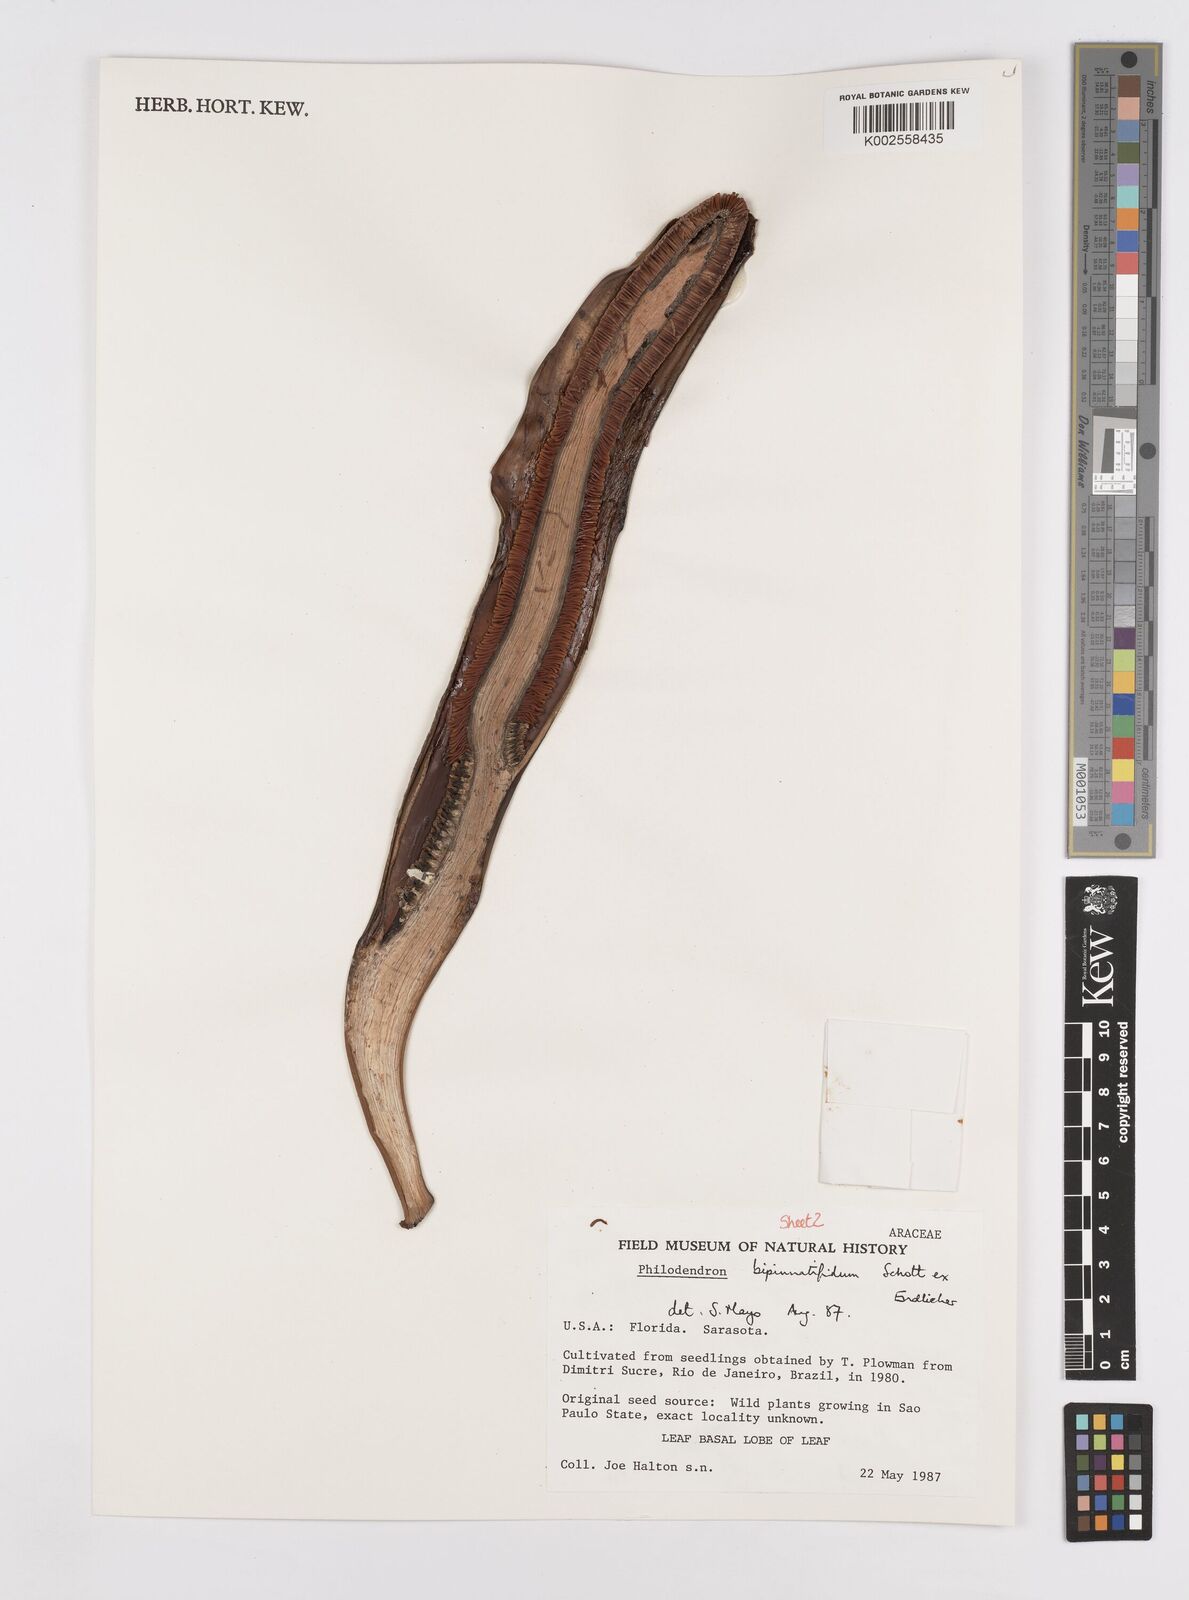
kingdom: Plantae
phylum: Tracheophyta
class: Liliopsida
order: Alismatales
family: Araceae
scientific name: Araceae
